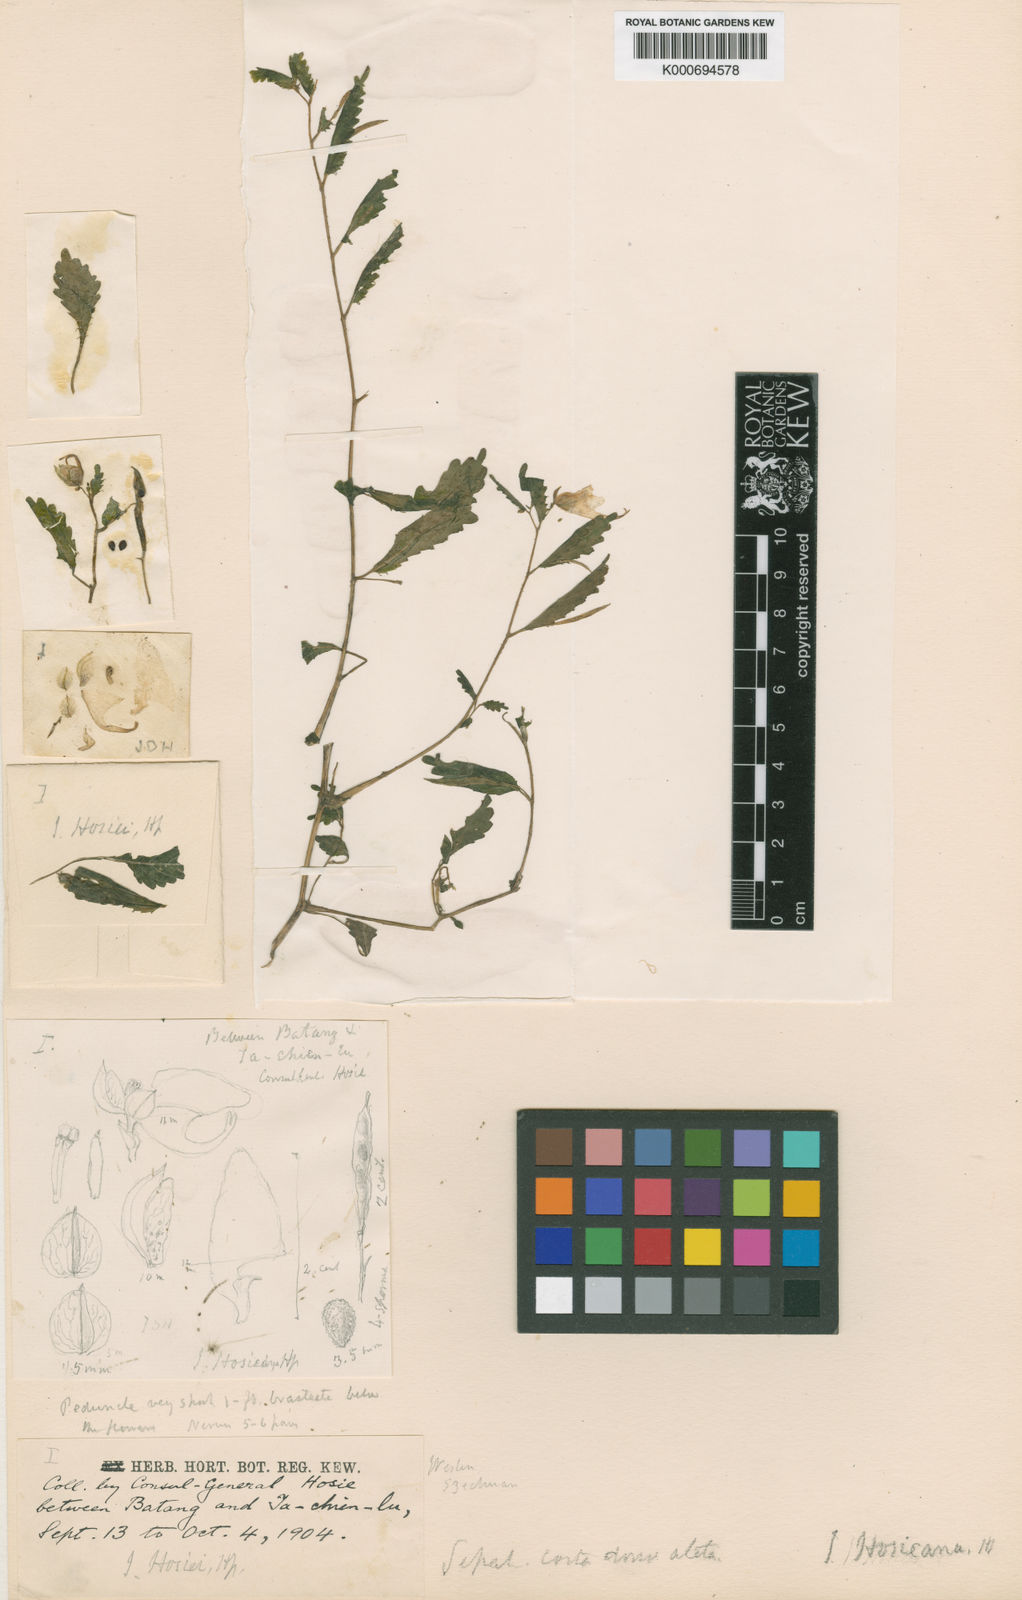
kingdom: Plantae
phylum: Tracheophyta
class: Magnoliopsida
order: Ericales
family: Balsaminaceae
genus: Impatiens
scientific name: Impatiens
